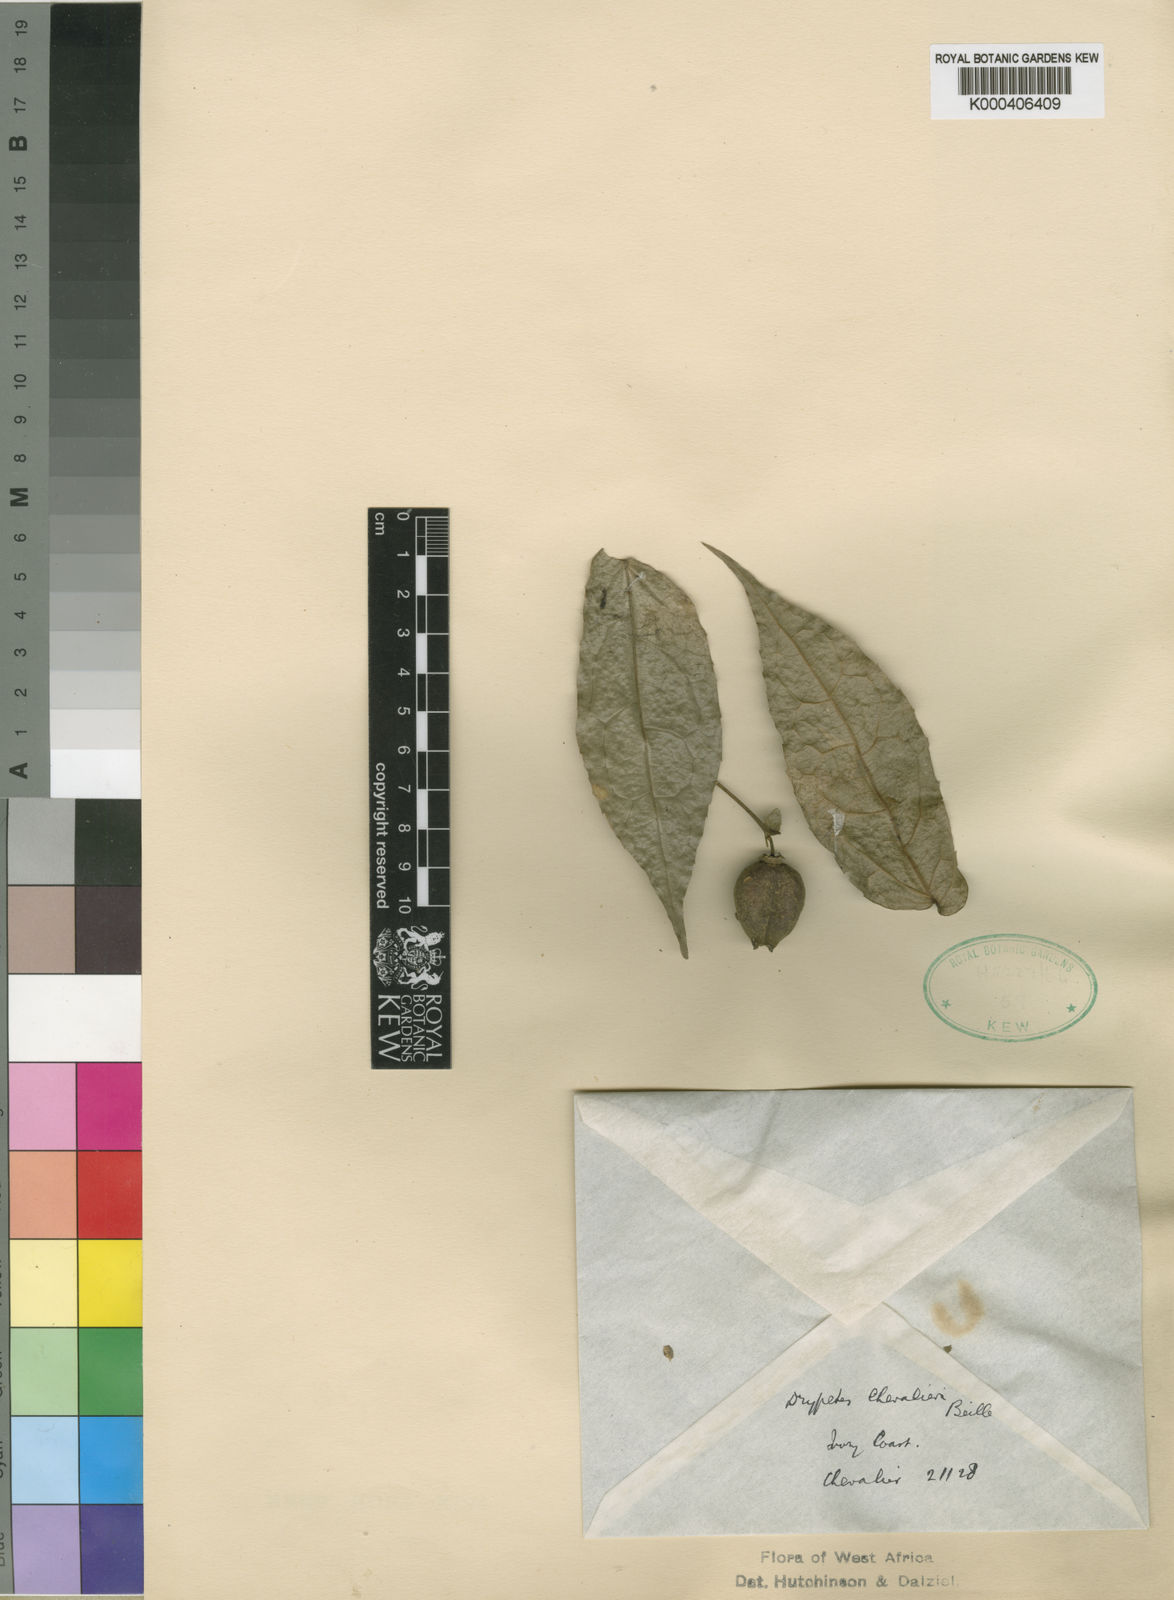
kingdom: Plantae
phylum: Tracheophyta
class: Magnoliopsida
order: Malpighiales
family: Putranjivaceae
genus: Drypetes
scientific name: Drypetes chevalieri
